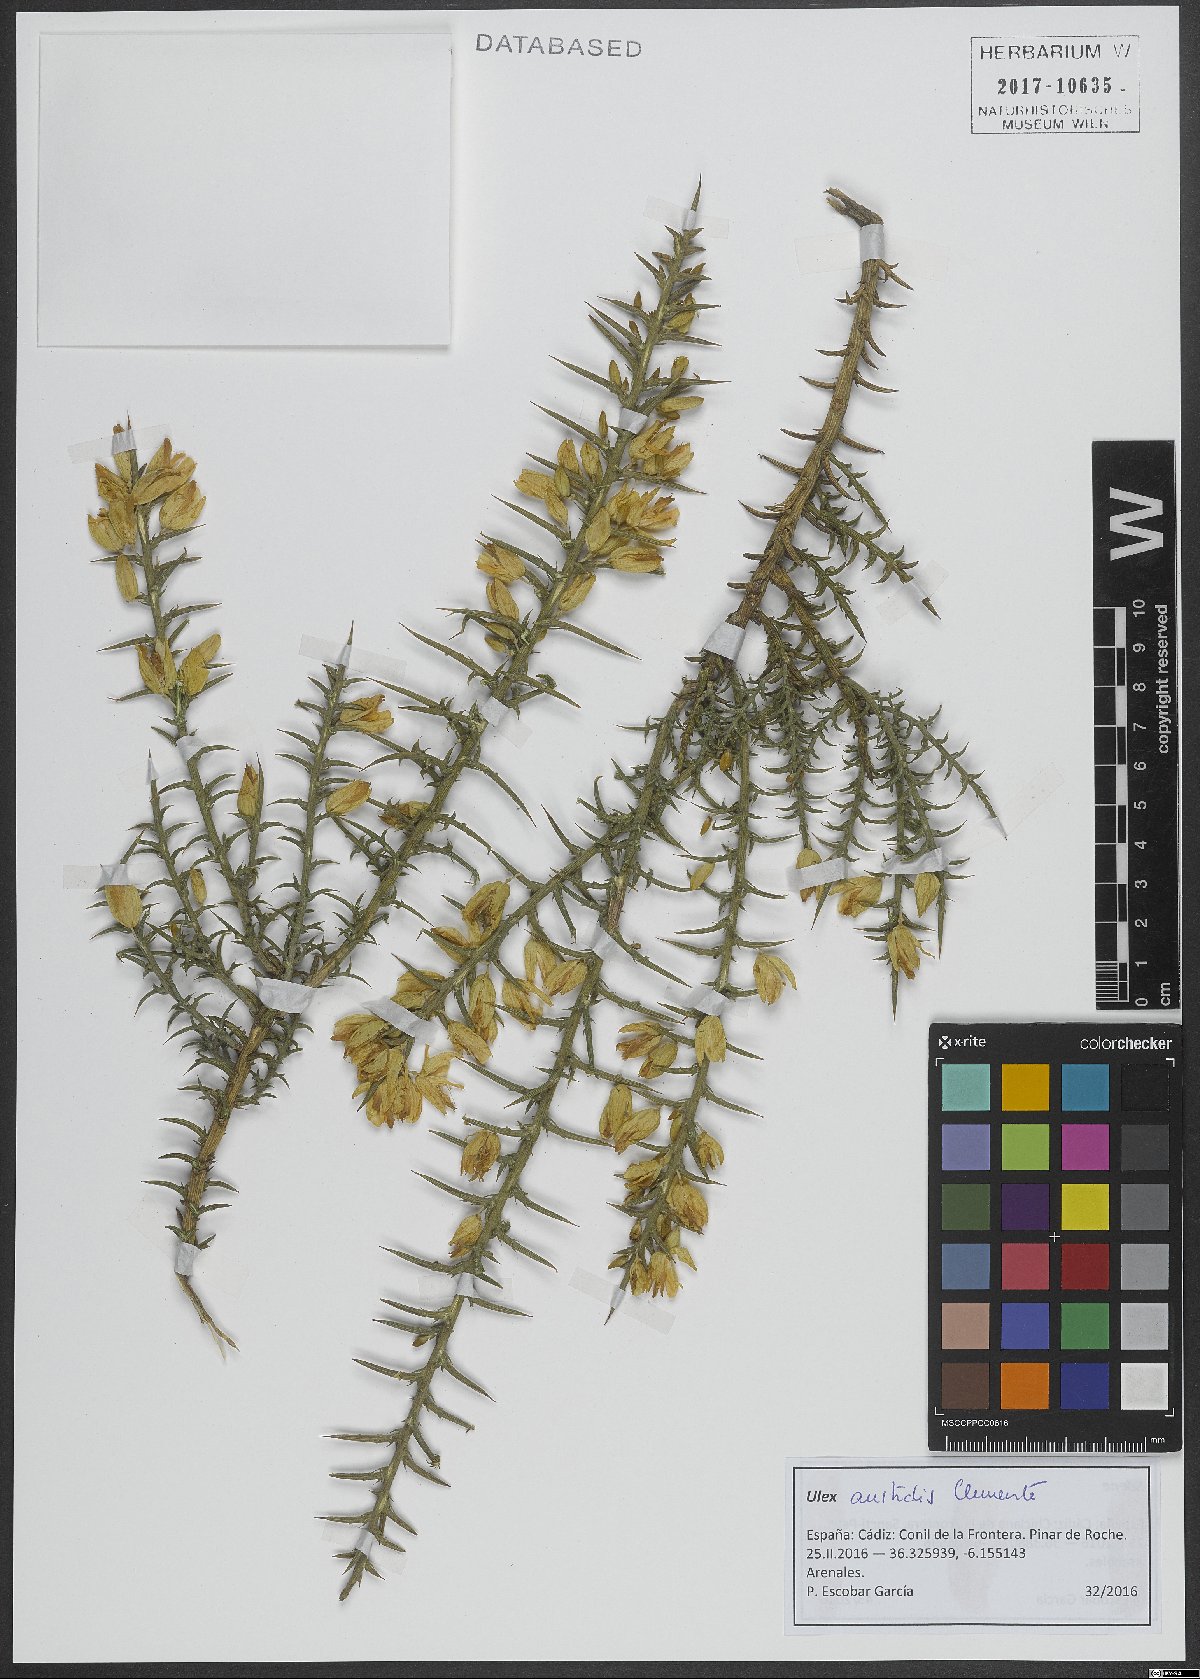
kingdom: Plantae
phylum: Tracheophyta
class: Magnoliopsida
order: Fabales
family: Fabaceae
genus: Ulex
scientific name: Ulex australis
